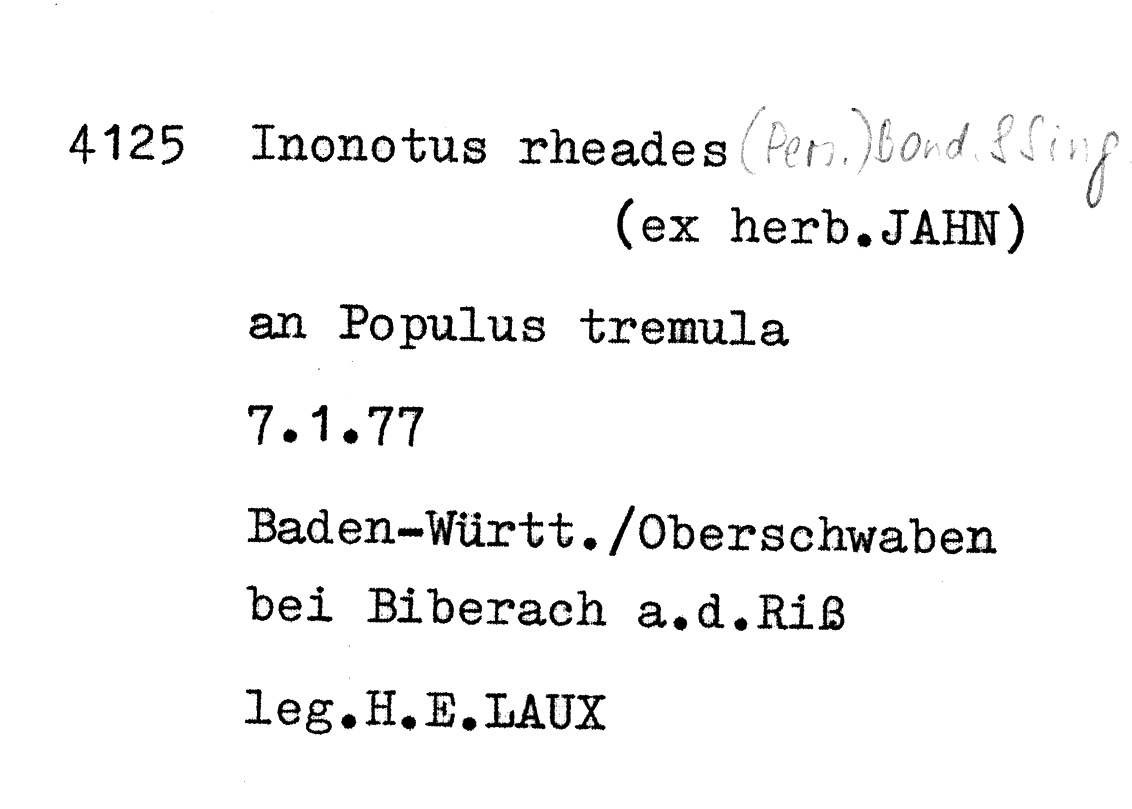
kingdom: Fungi
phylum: Basidiomycota
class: Agaricomycetes
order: Hymenochaetales
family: Hymenochaetaceae
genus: Inocutis
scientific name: Inocutis rheades
